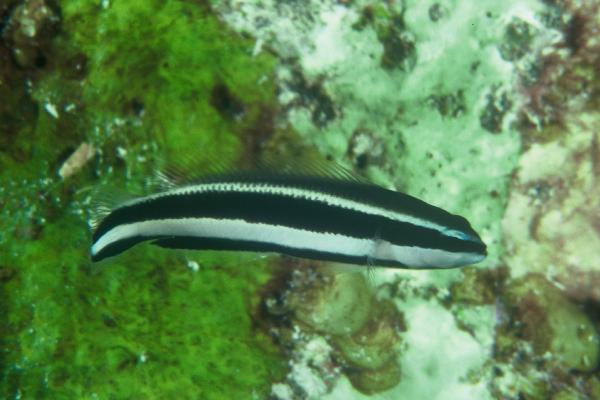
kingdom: Animalia
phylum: Chordata
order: Perciformes
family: Pseudochromidae
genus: Pseudochromis
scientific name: Pseudochromis sankeyi
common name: Striped dottyback
